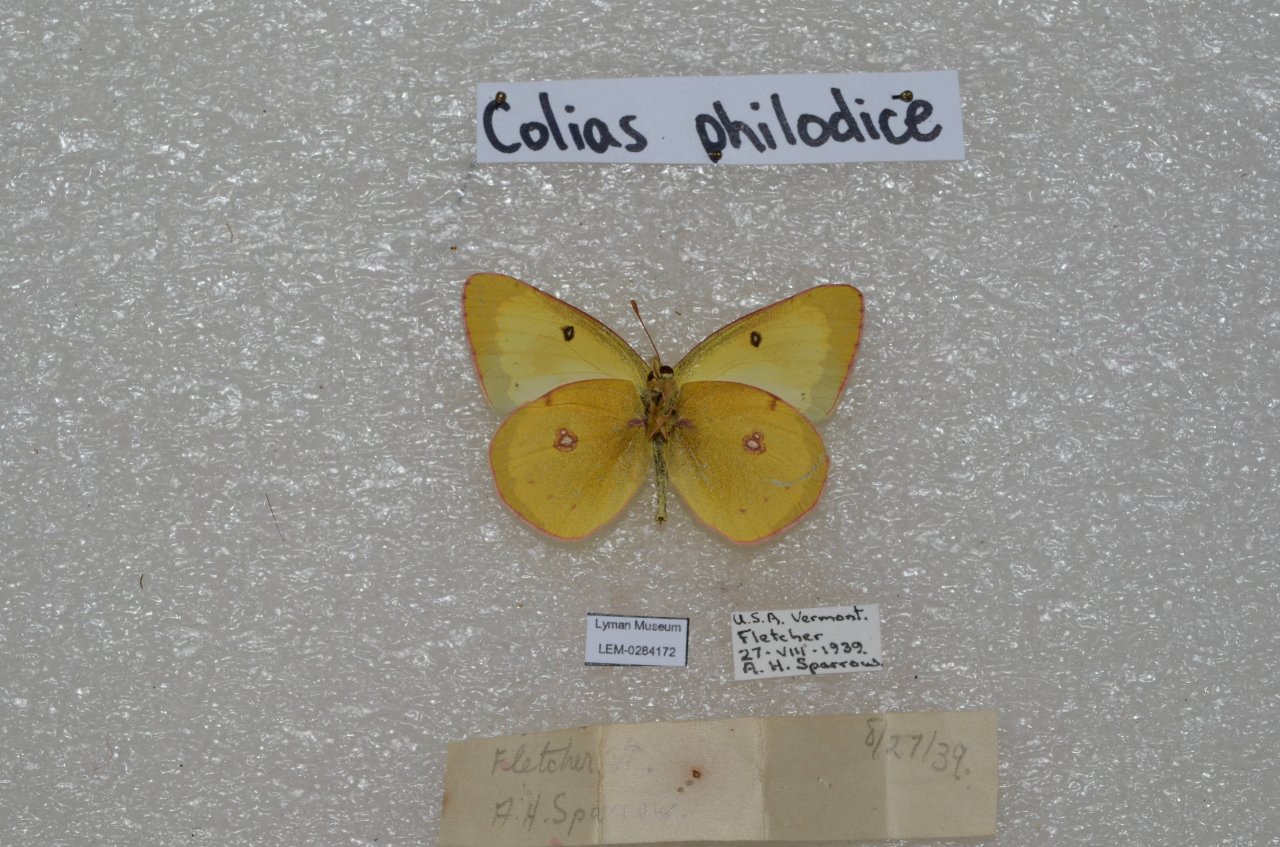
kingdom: Animalia
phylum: Arthropoda
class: Insecta
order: Lepidoptera
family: Pieridae
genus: Colias
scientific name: Colias philodice
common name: Clouded Sulphur
